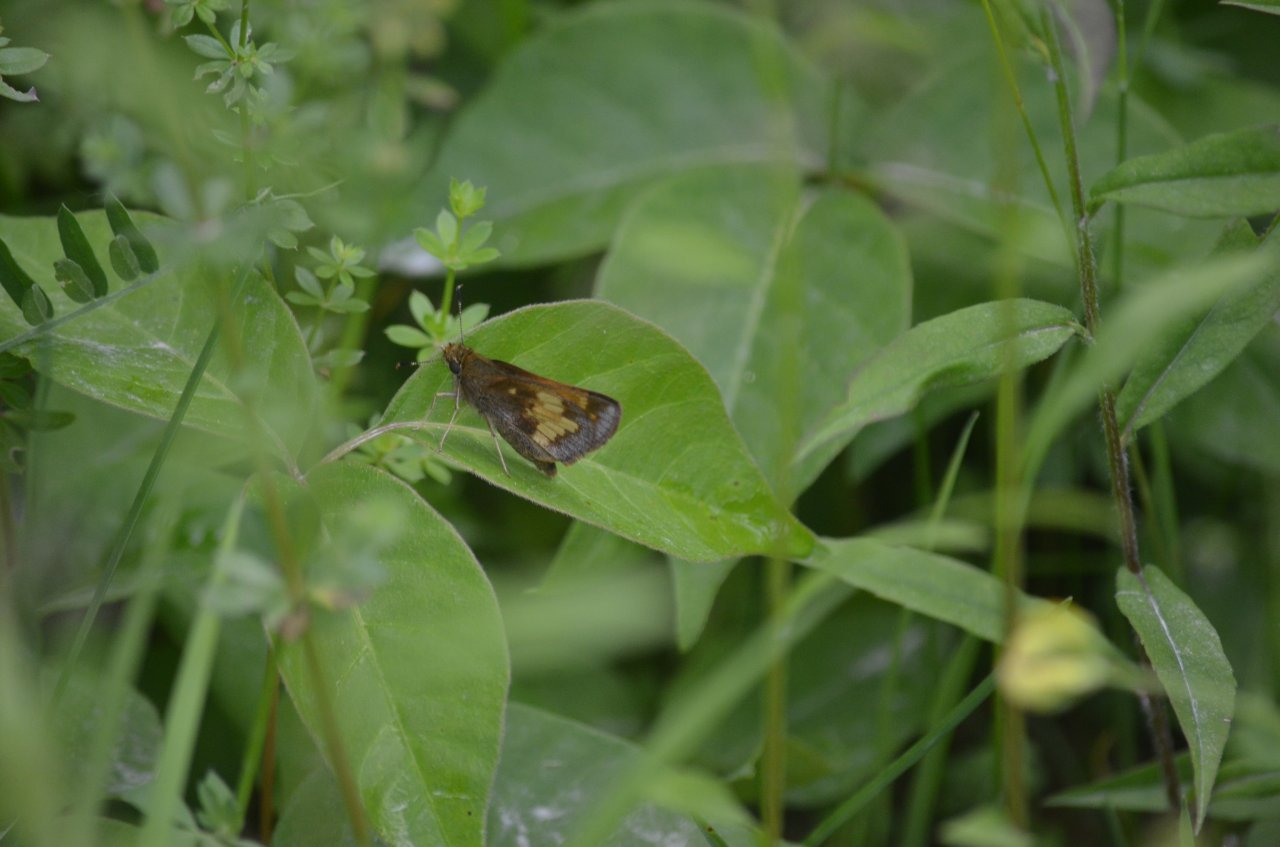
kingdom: Animalia
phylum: Arthropoda
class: Insecta
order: Lepidoptera
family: Hesperiidae
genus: Lon
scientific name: Lon hobomok
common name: Hobomok Skipper
